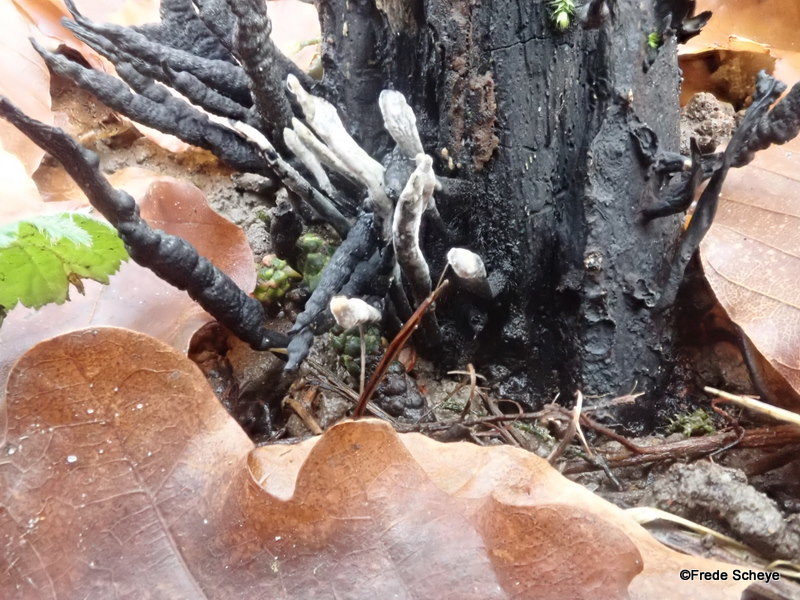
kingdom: Fungi
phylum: Ascomycota
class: Sordariomycetes
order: Xylariales
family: Xylariaceae
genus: Xylaria
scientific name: Xylaria hypoxylon
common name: grenet stødsvamp
